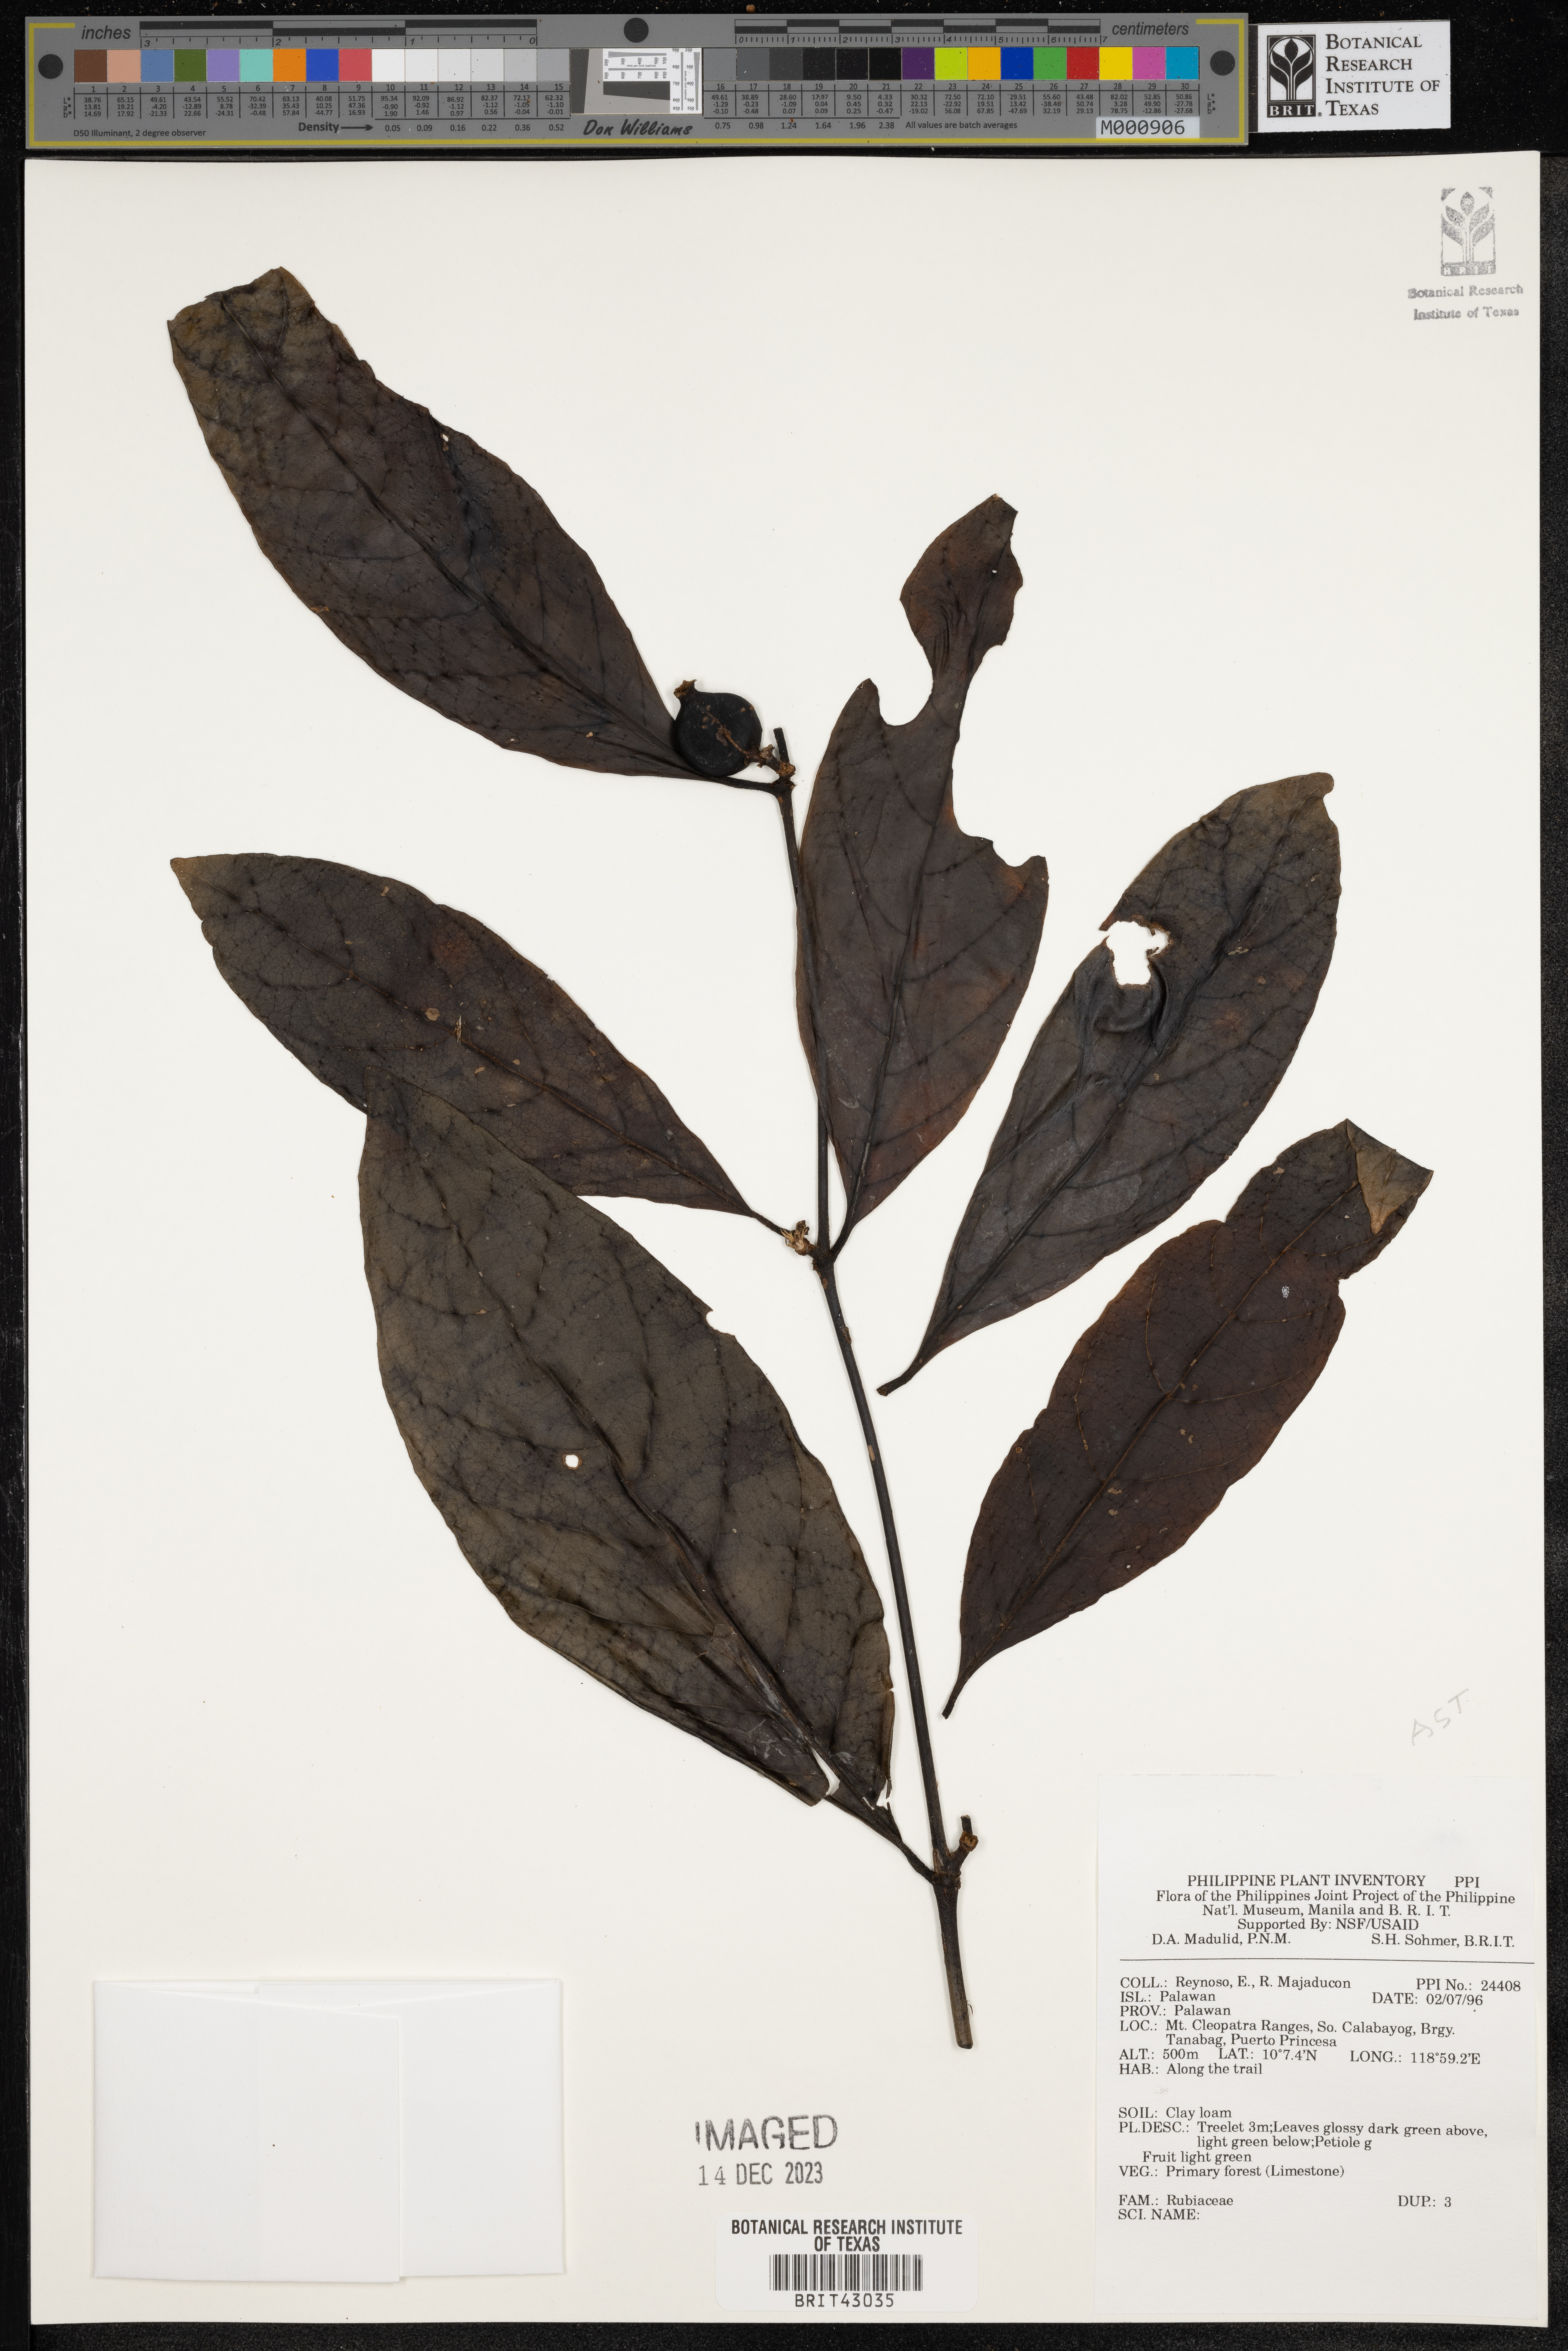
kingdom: Plantae
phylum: Tracheophyta
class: Magnoliopsida
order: Gentianales
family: Rubiaceae
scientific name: Rubiaceae
